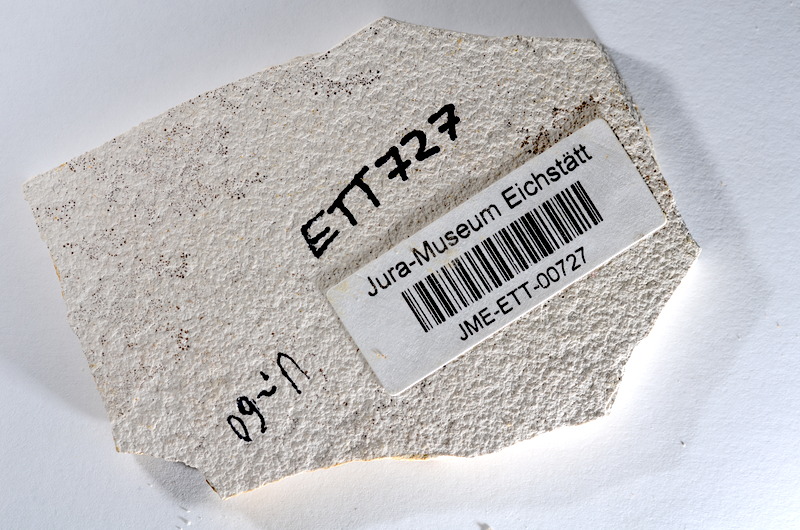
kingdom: Animalia
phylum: Chordata
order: Salmoniformes
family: Orthogonikleithridae
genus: Orthogonikleithrus
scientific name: Orthogonikleithrus hoelli
